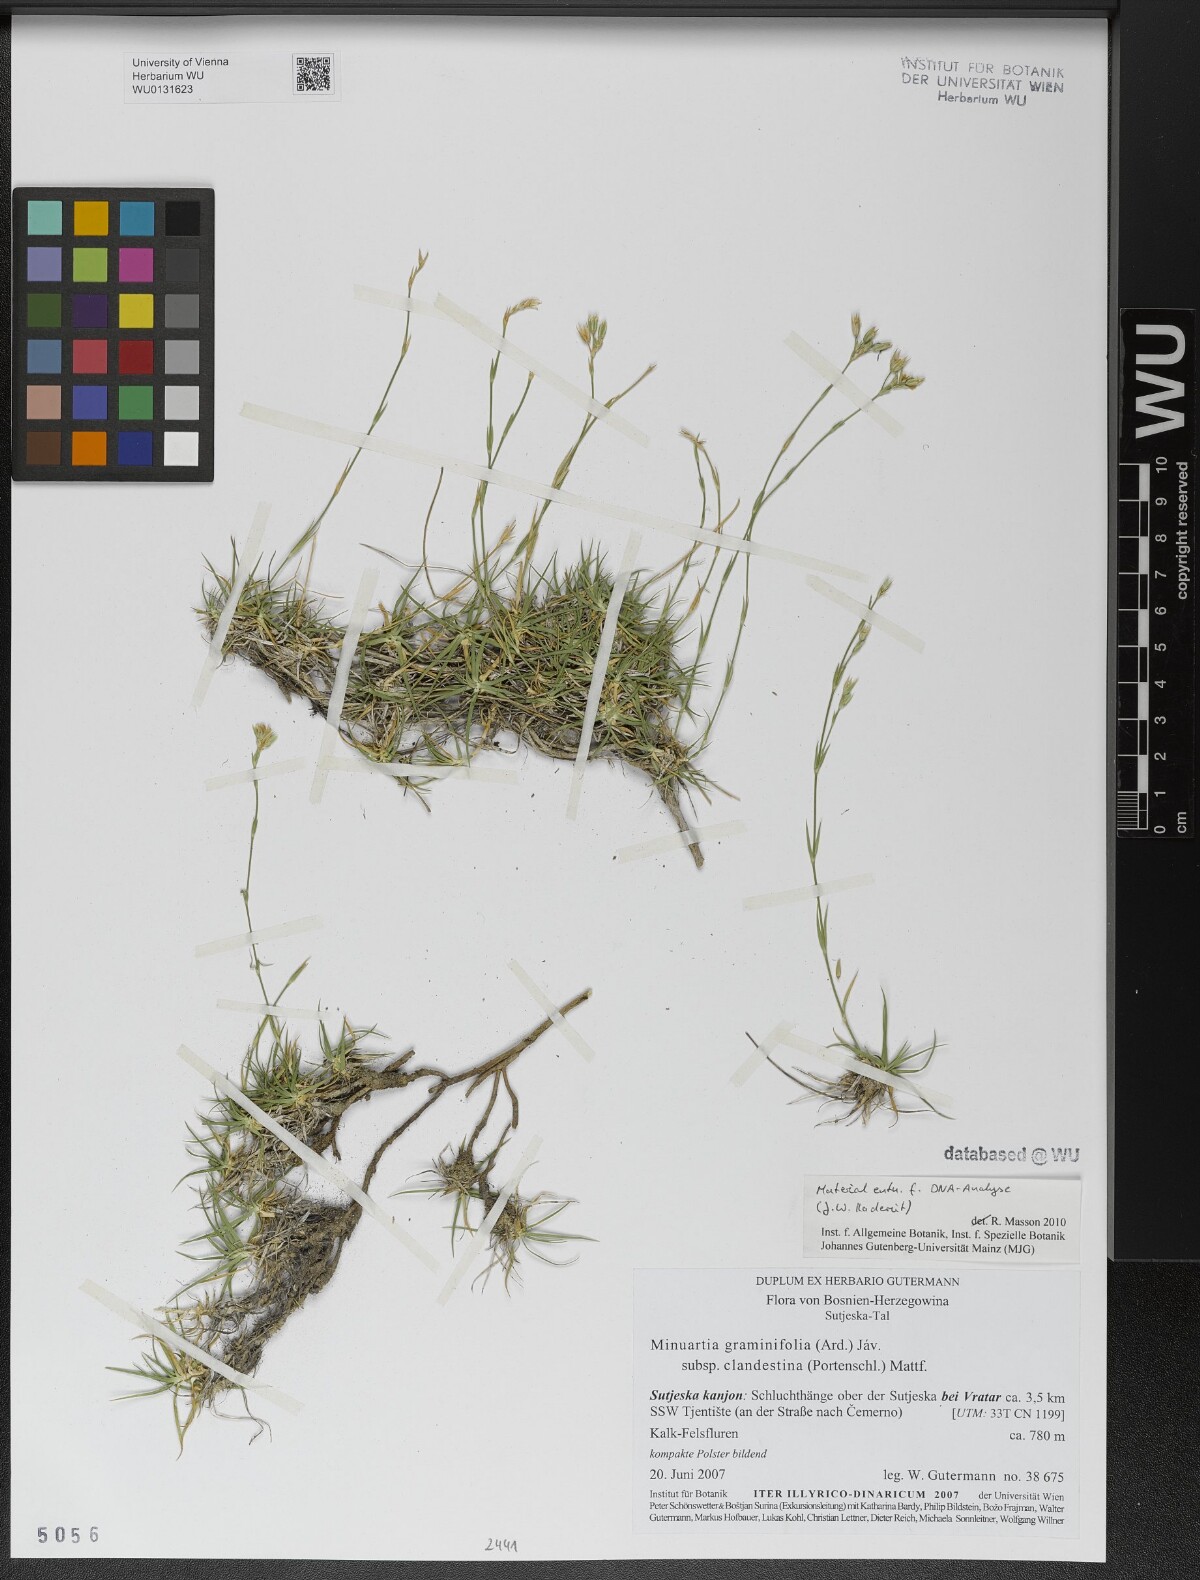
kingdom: Plantae
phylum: Tracheophyta
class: Magnoliopsida
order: Caryophyllales
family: Caryophyllaceae
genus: Mcneillia
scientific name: Mcneillia graminifolia
